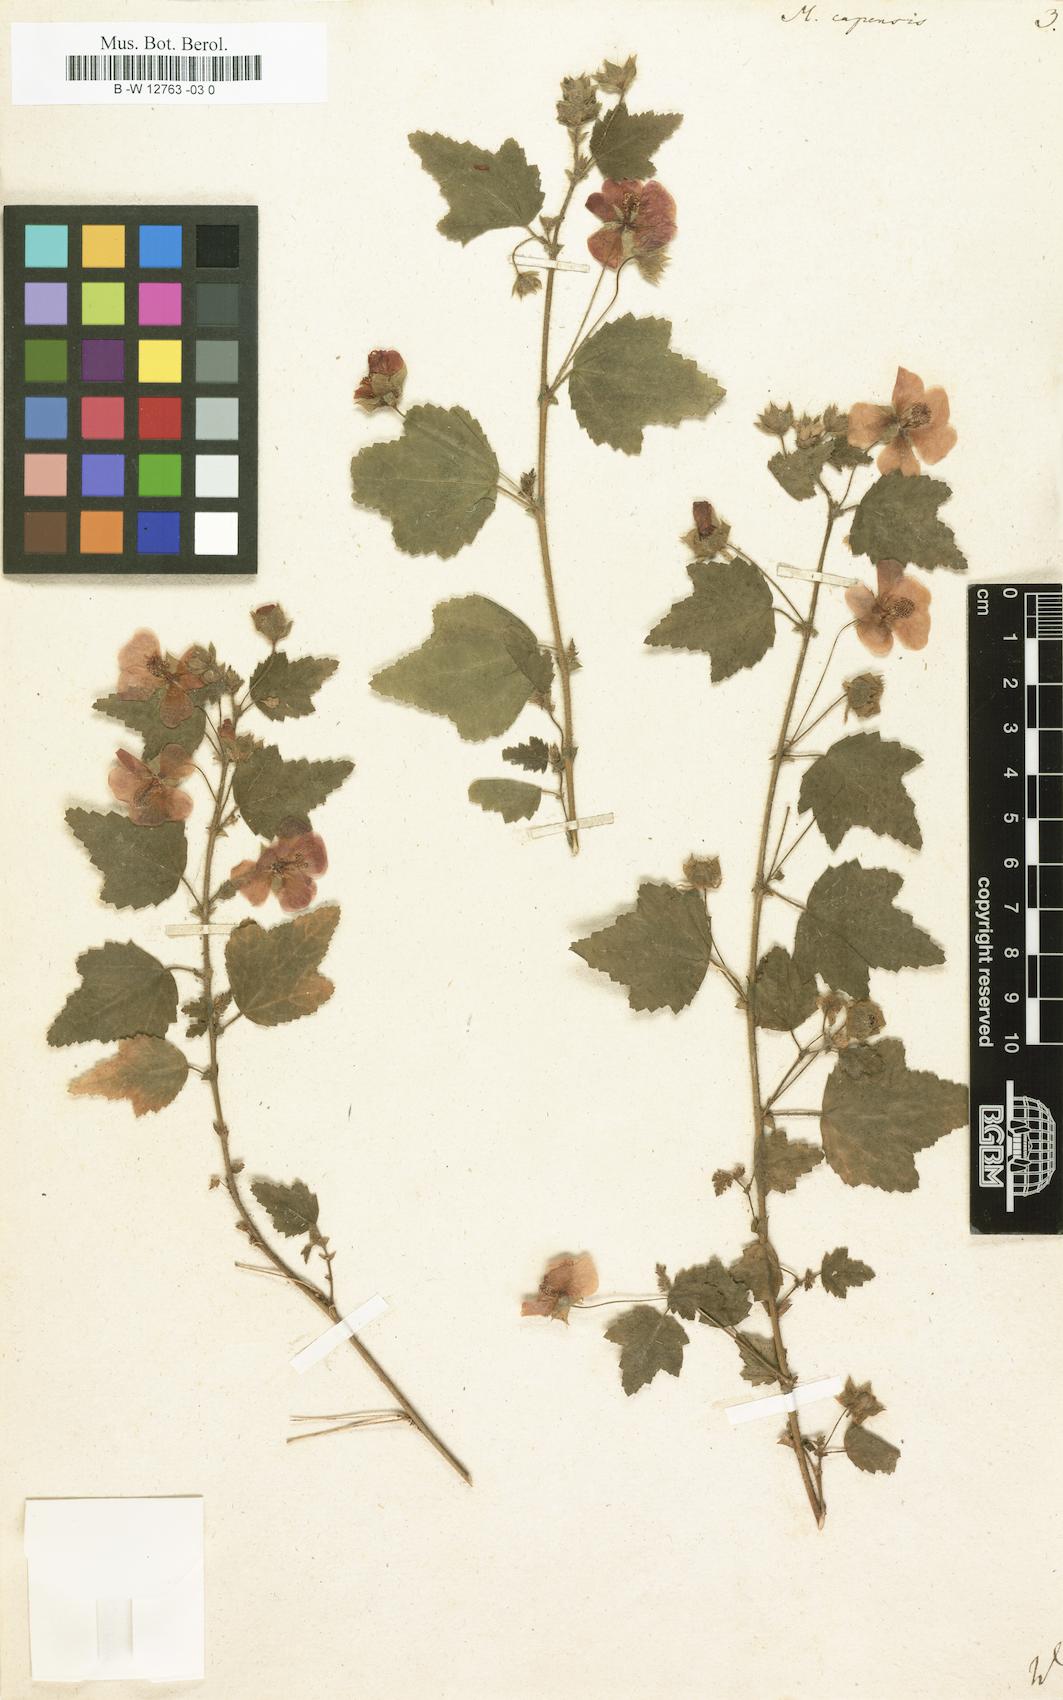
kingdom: Plantae
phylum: Tracheophyta
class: Magnoliopsida
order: Malvales
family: Malvaceae
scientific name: Malvaceae
